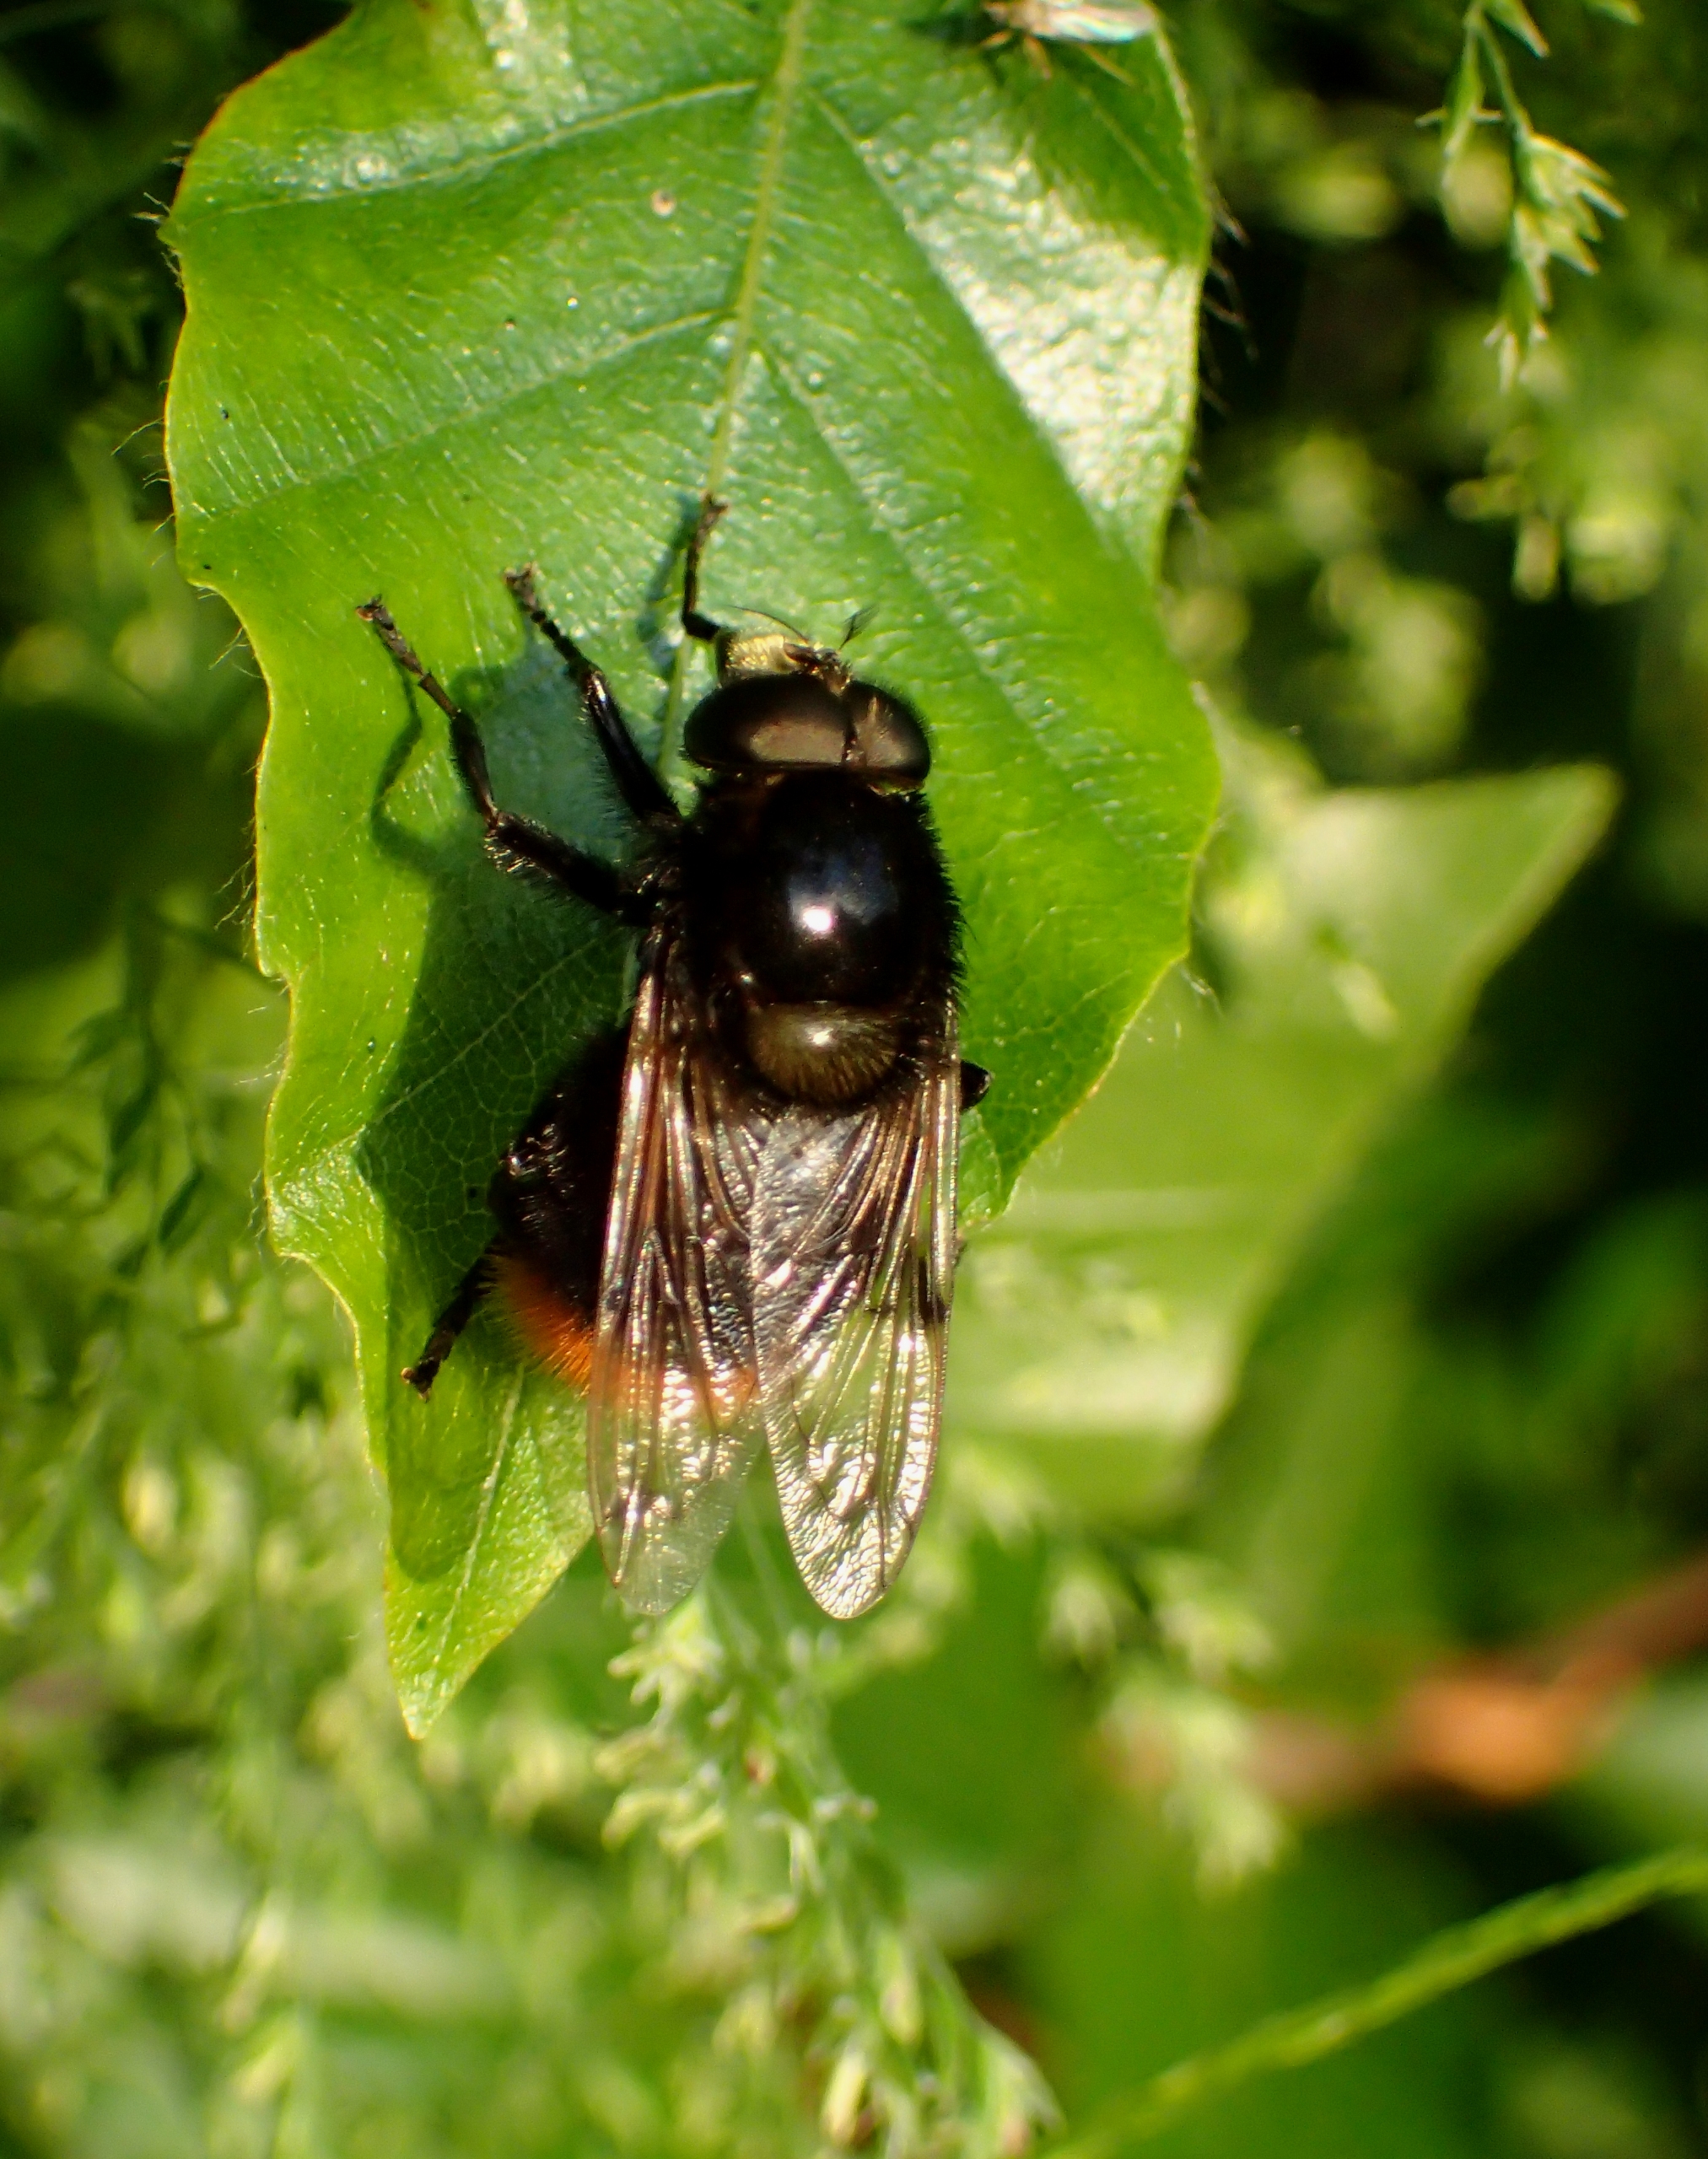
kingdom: Animalia
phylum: Arthropoda
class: Insecta
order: Diptera
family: Syrphidae
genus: Volucella
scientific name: Volucella bombylans
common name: Foranderlig humlesvirreflue
